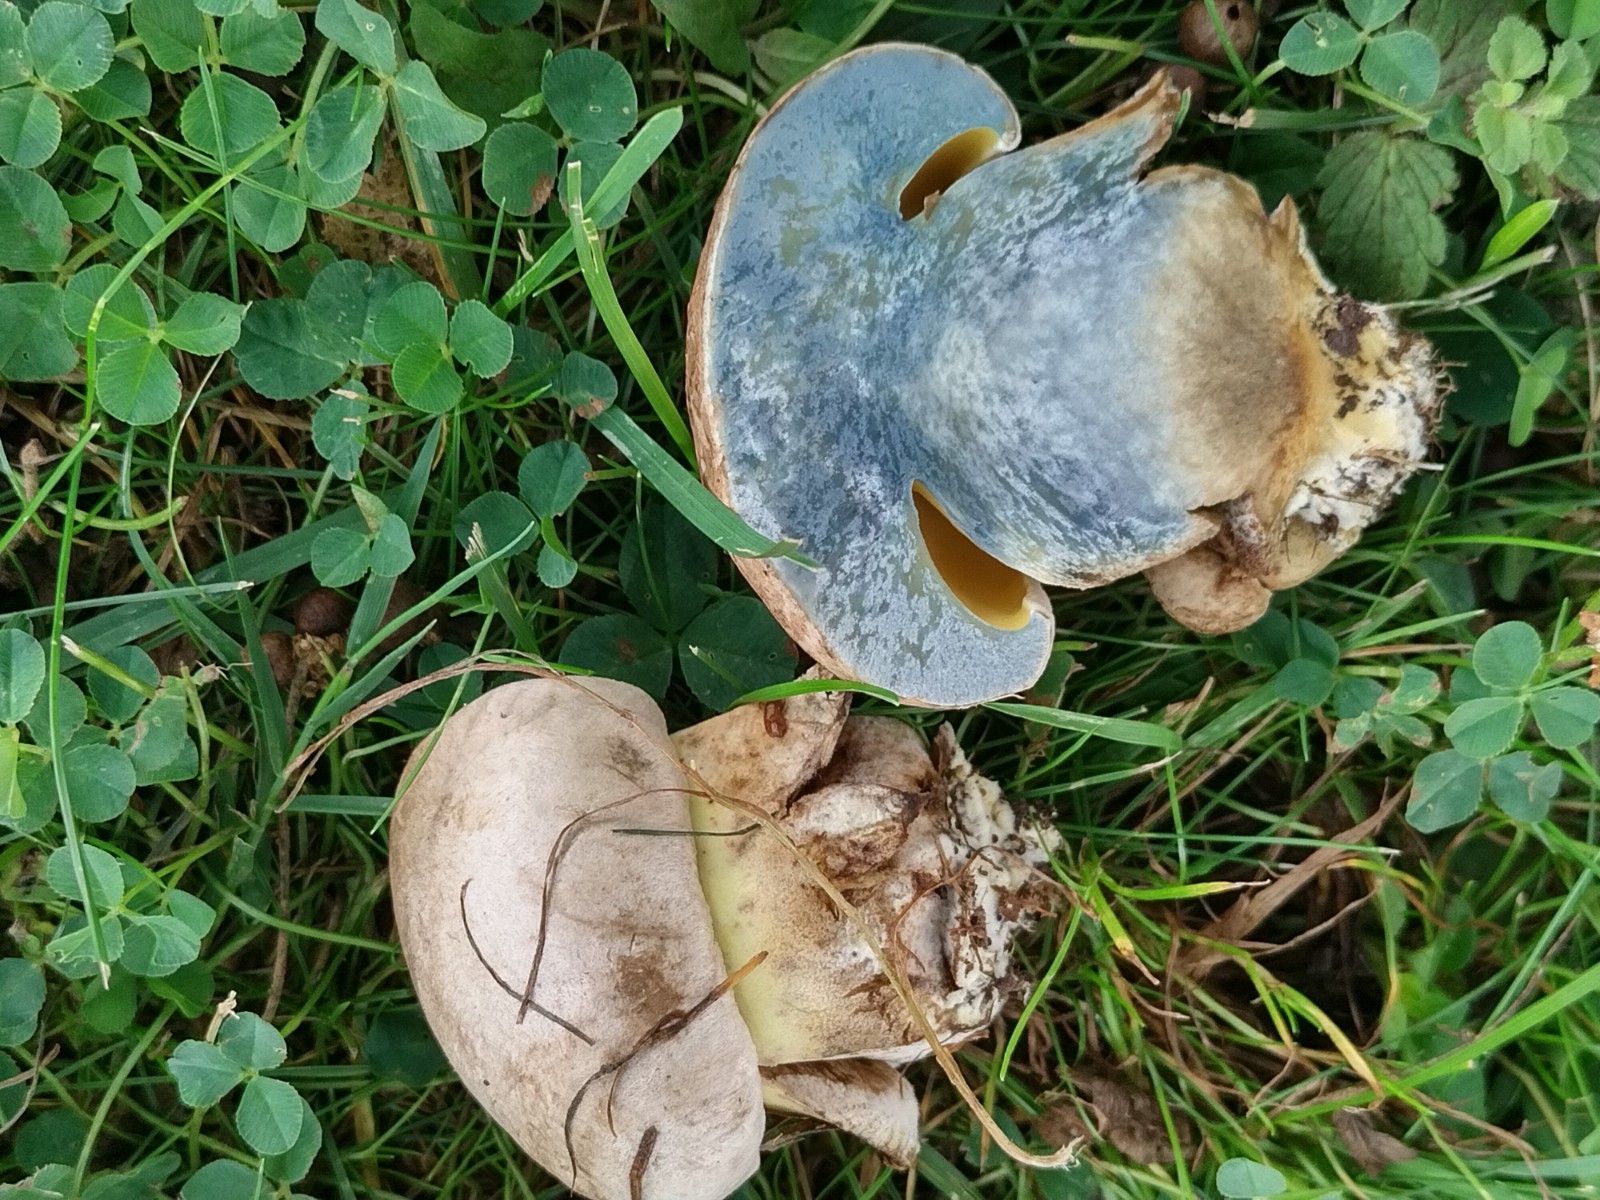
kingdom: Fungi
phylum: Basidiomycota
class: Agaricomycetes
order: Boletales
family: Boletaceae
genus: Caloboletus
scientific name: Caloboletus radicans
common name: rod-rørhat
